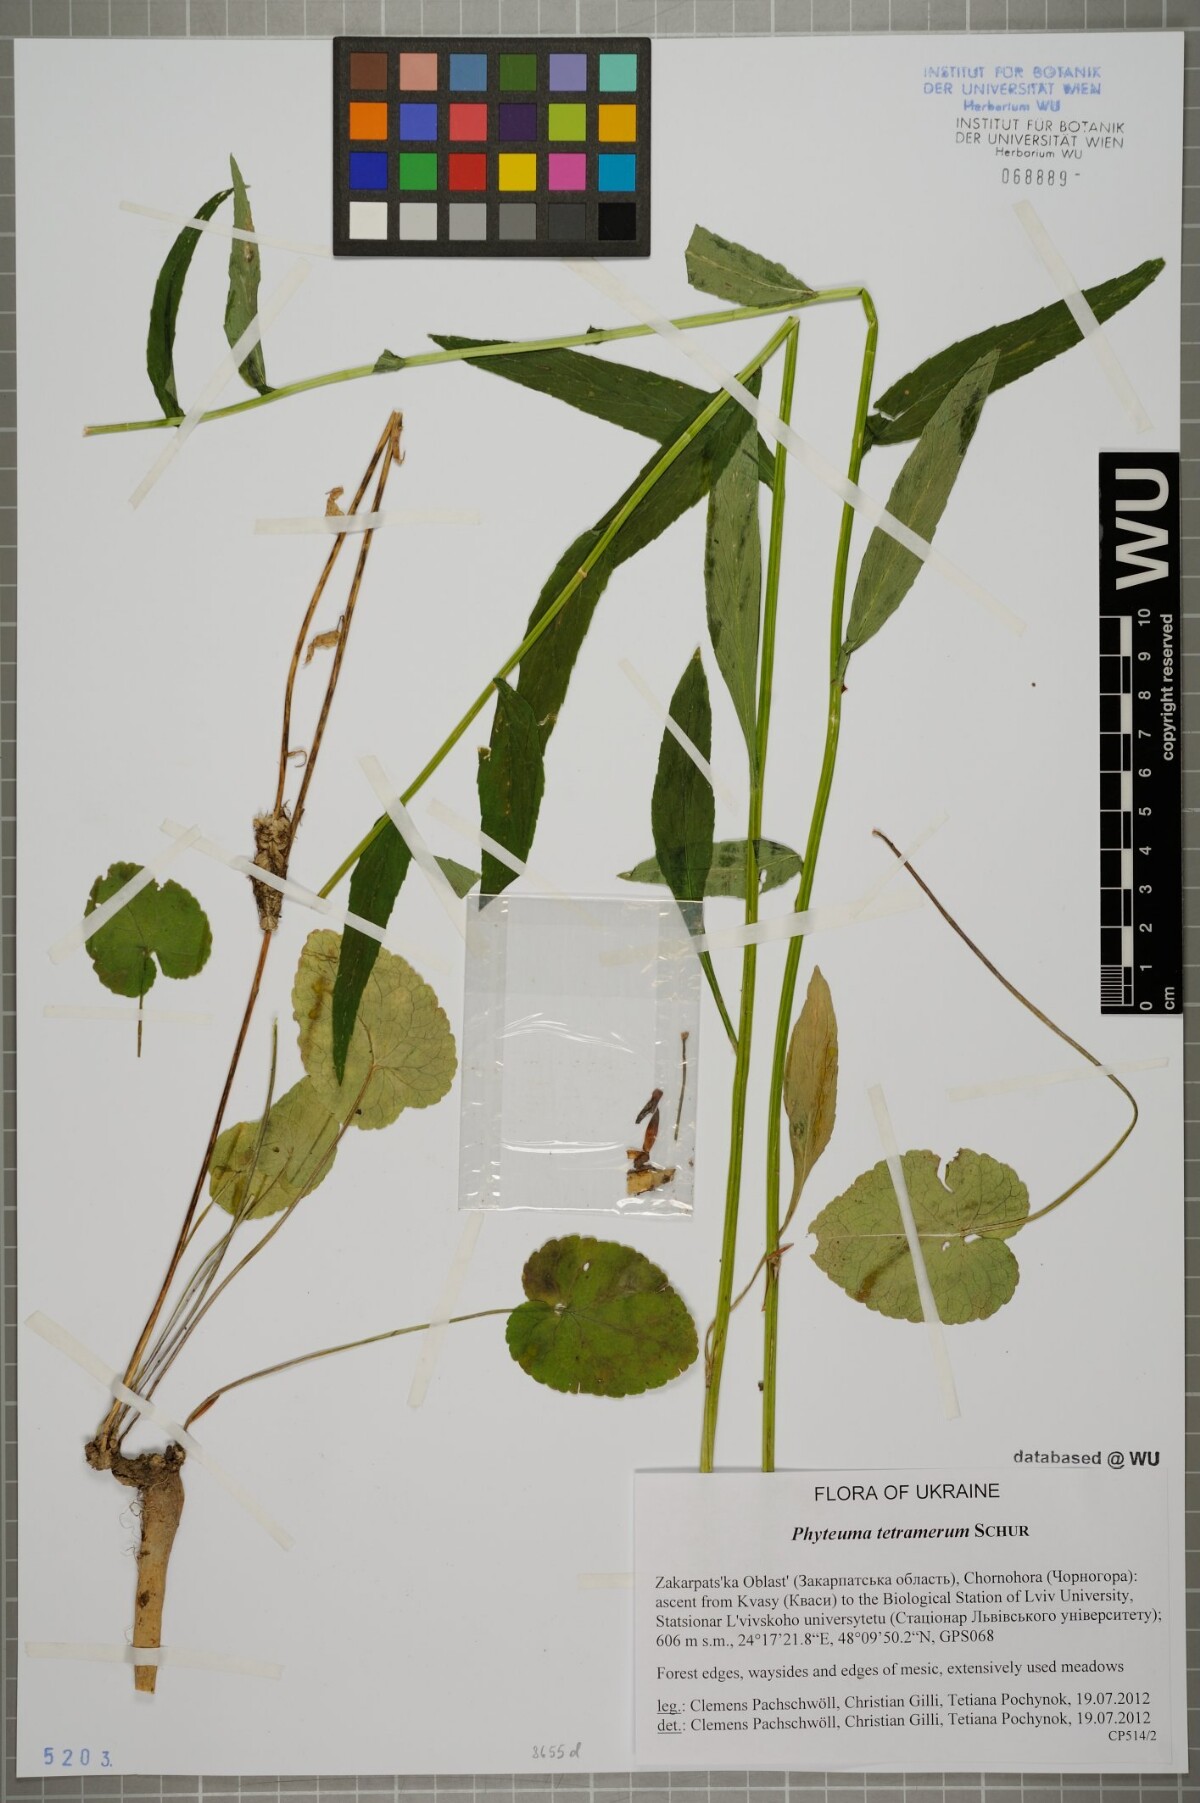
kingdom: Plantae
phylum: Tracheophyta
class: Magnoliopsida
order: Asterales
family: Campanulaceae
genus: Phyteuma
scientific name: Phyteuma tetramerum
